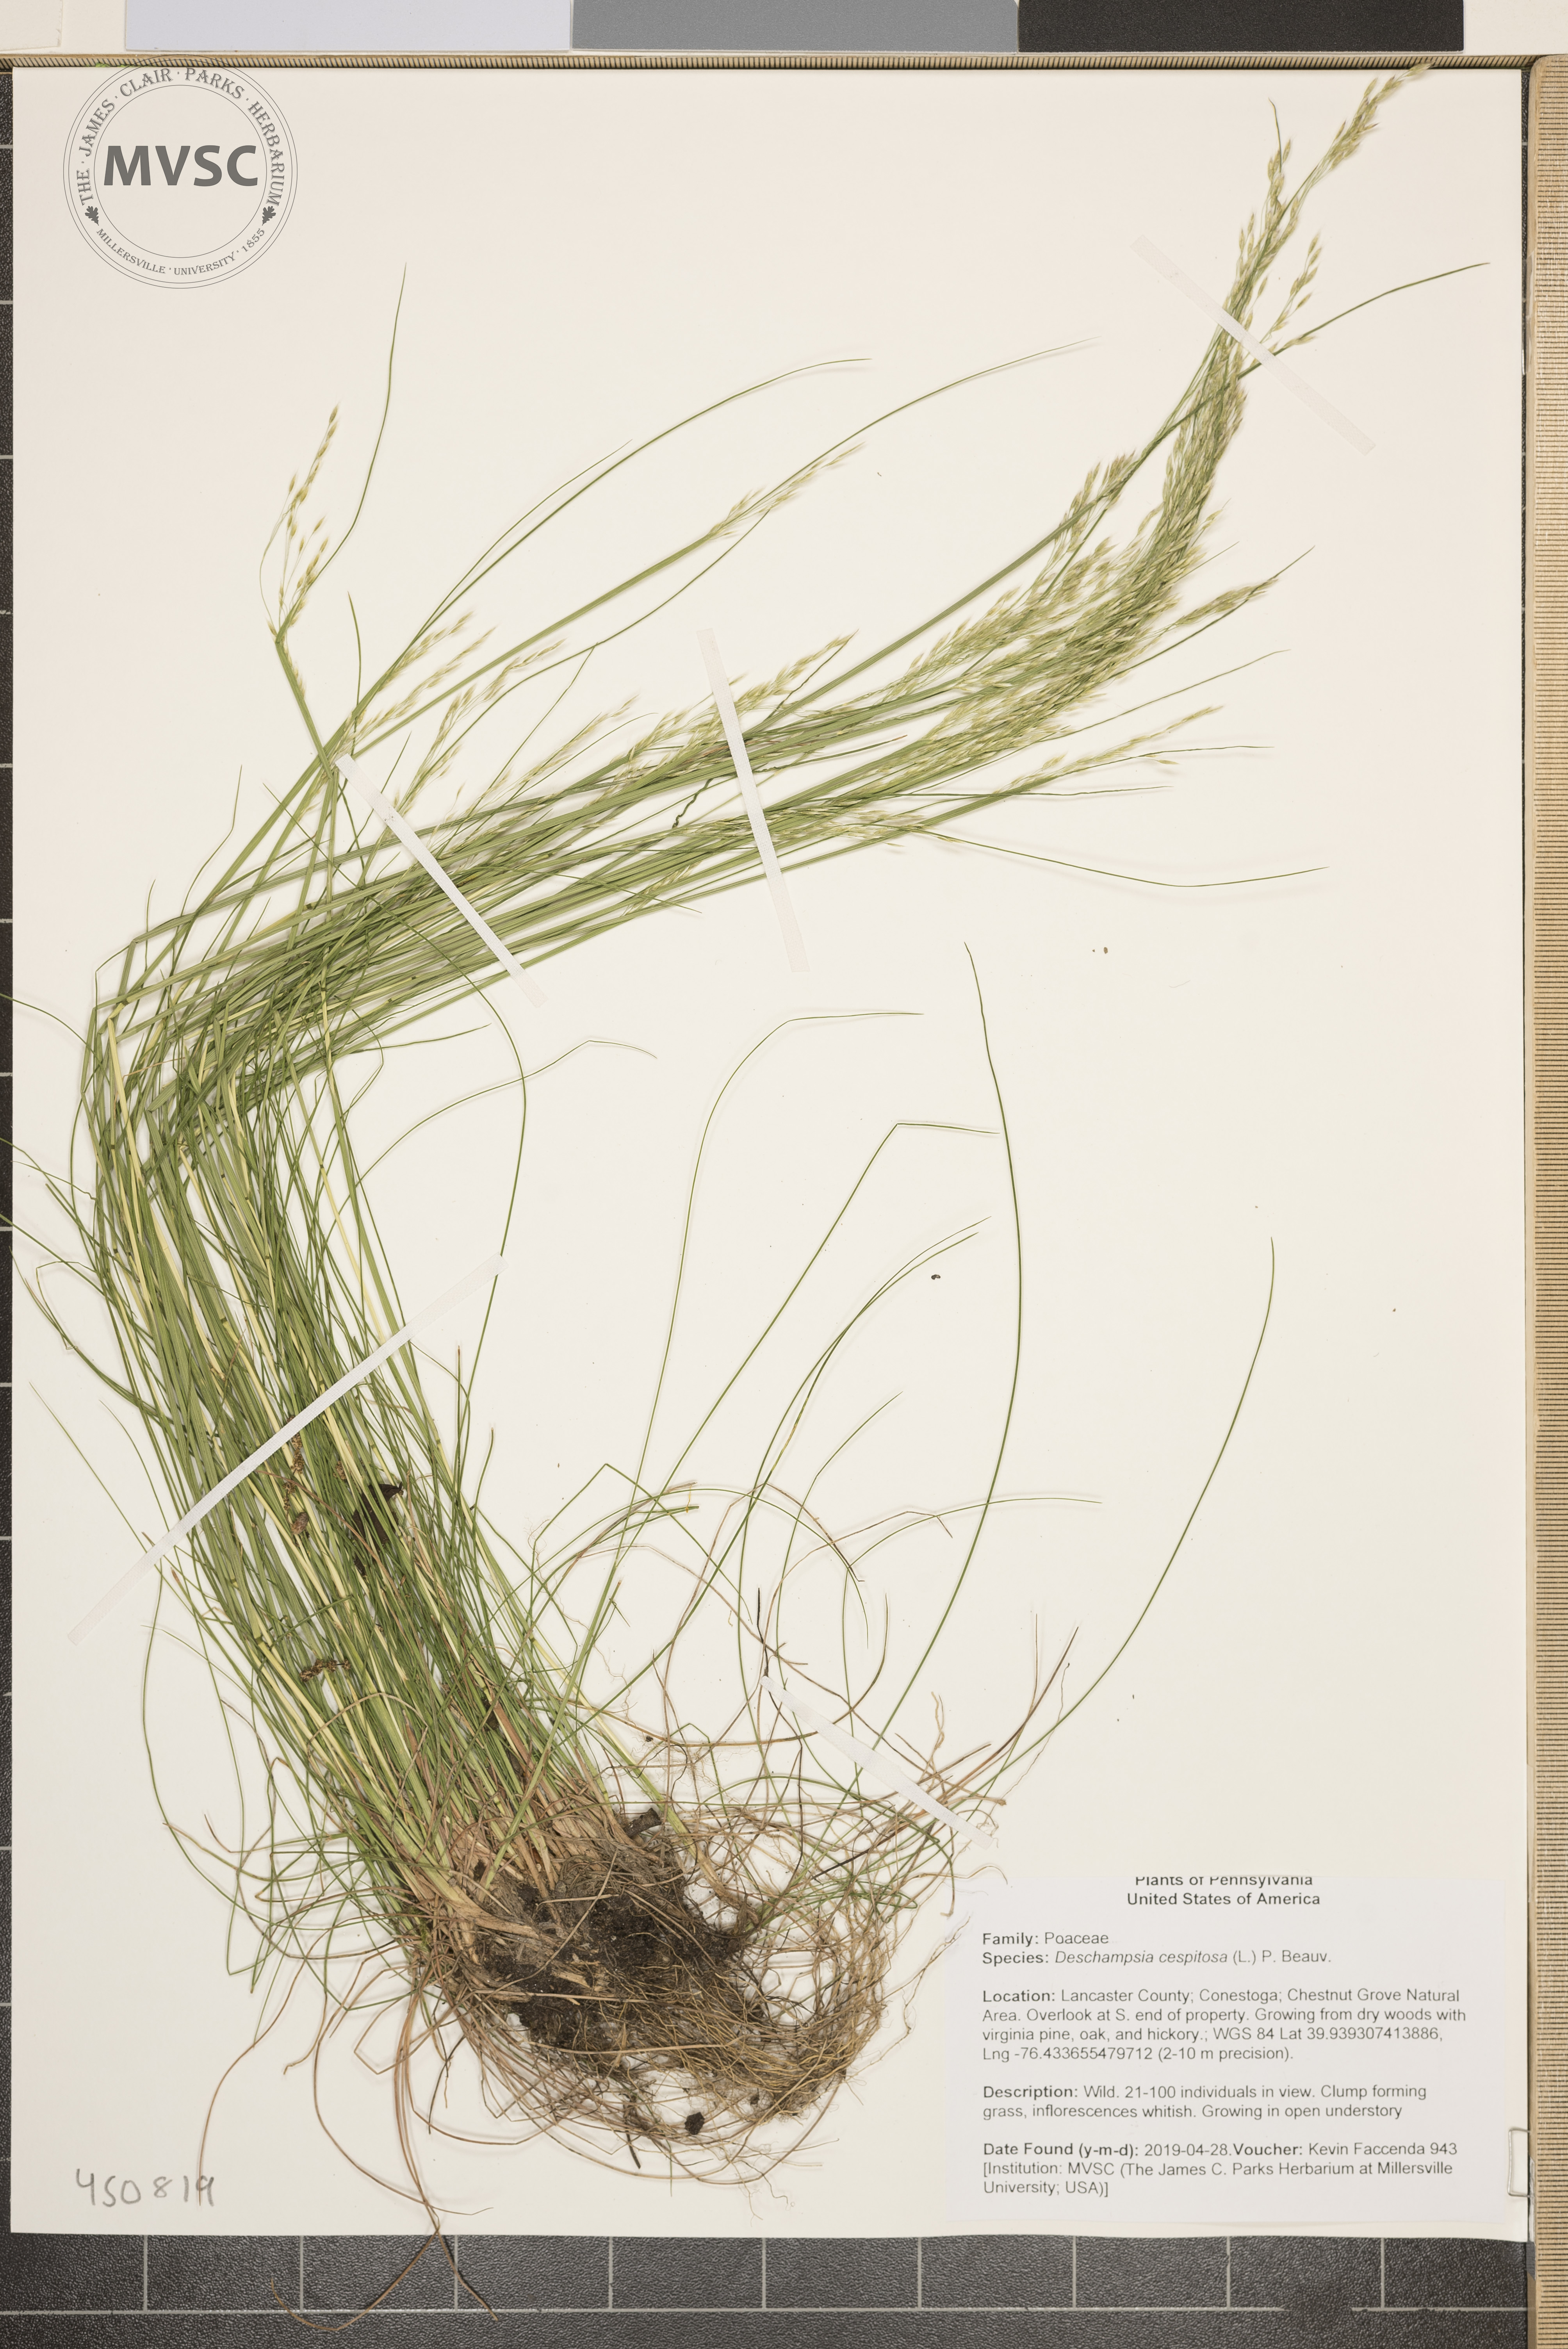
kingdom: Plantae
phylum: Tracheophyta
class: Liliopsida
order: Poales
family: Poaceae
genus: Deschampsia
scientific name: Deschampsia cespitosa
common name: Tufted hair-grass
